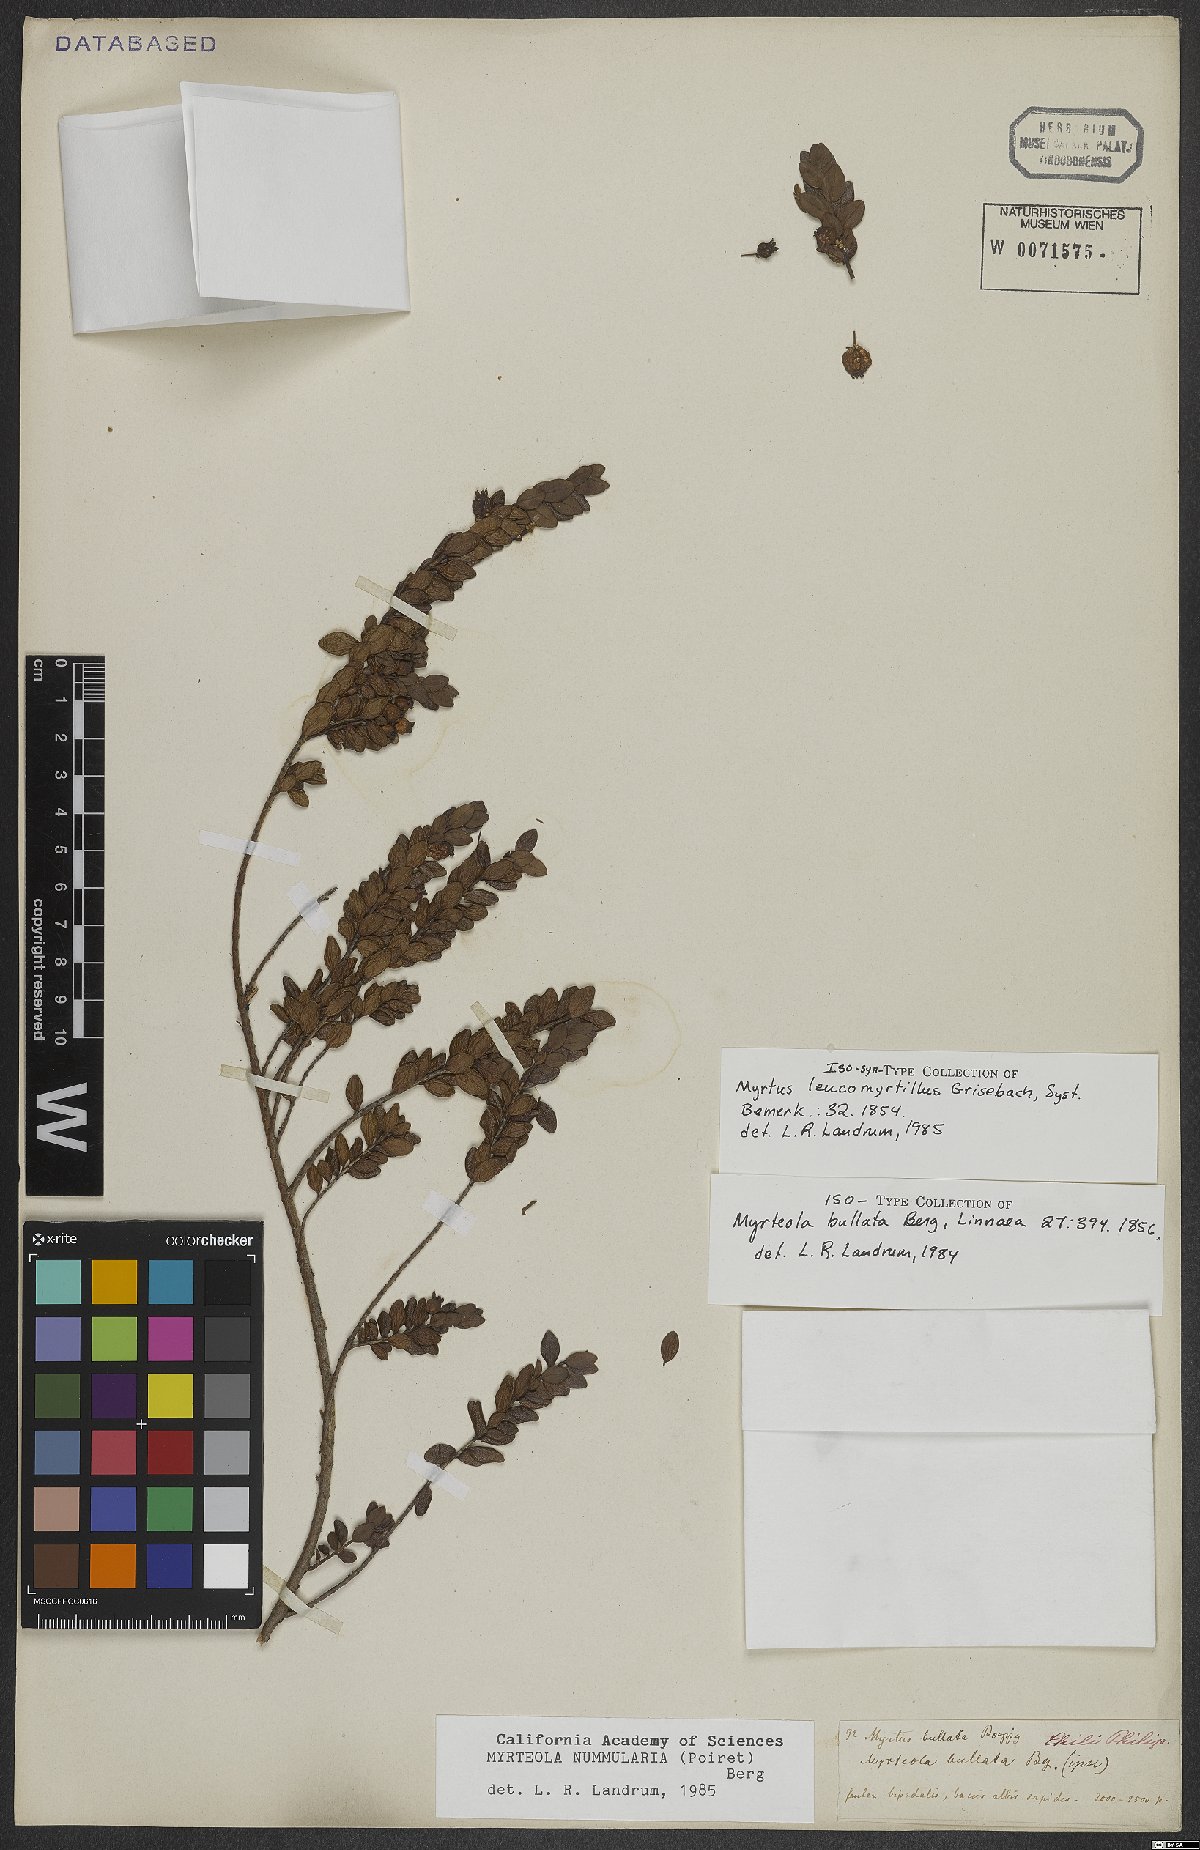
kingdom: Plantae
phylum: Tracheophyta
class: Magnoliopsida
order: Myrtales
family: Myrtaceae
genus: Myrteola
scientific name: Myrteola nummularia
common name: Cranberry-myrtle
